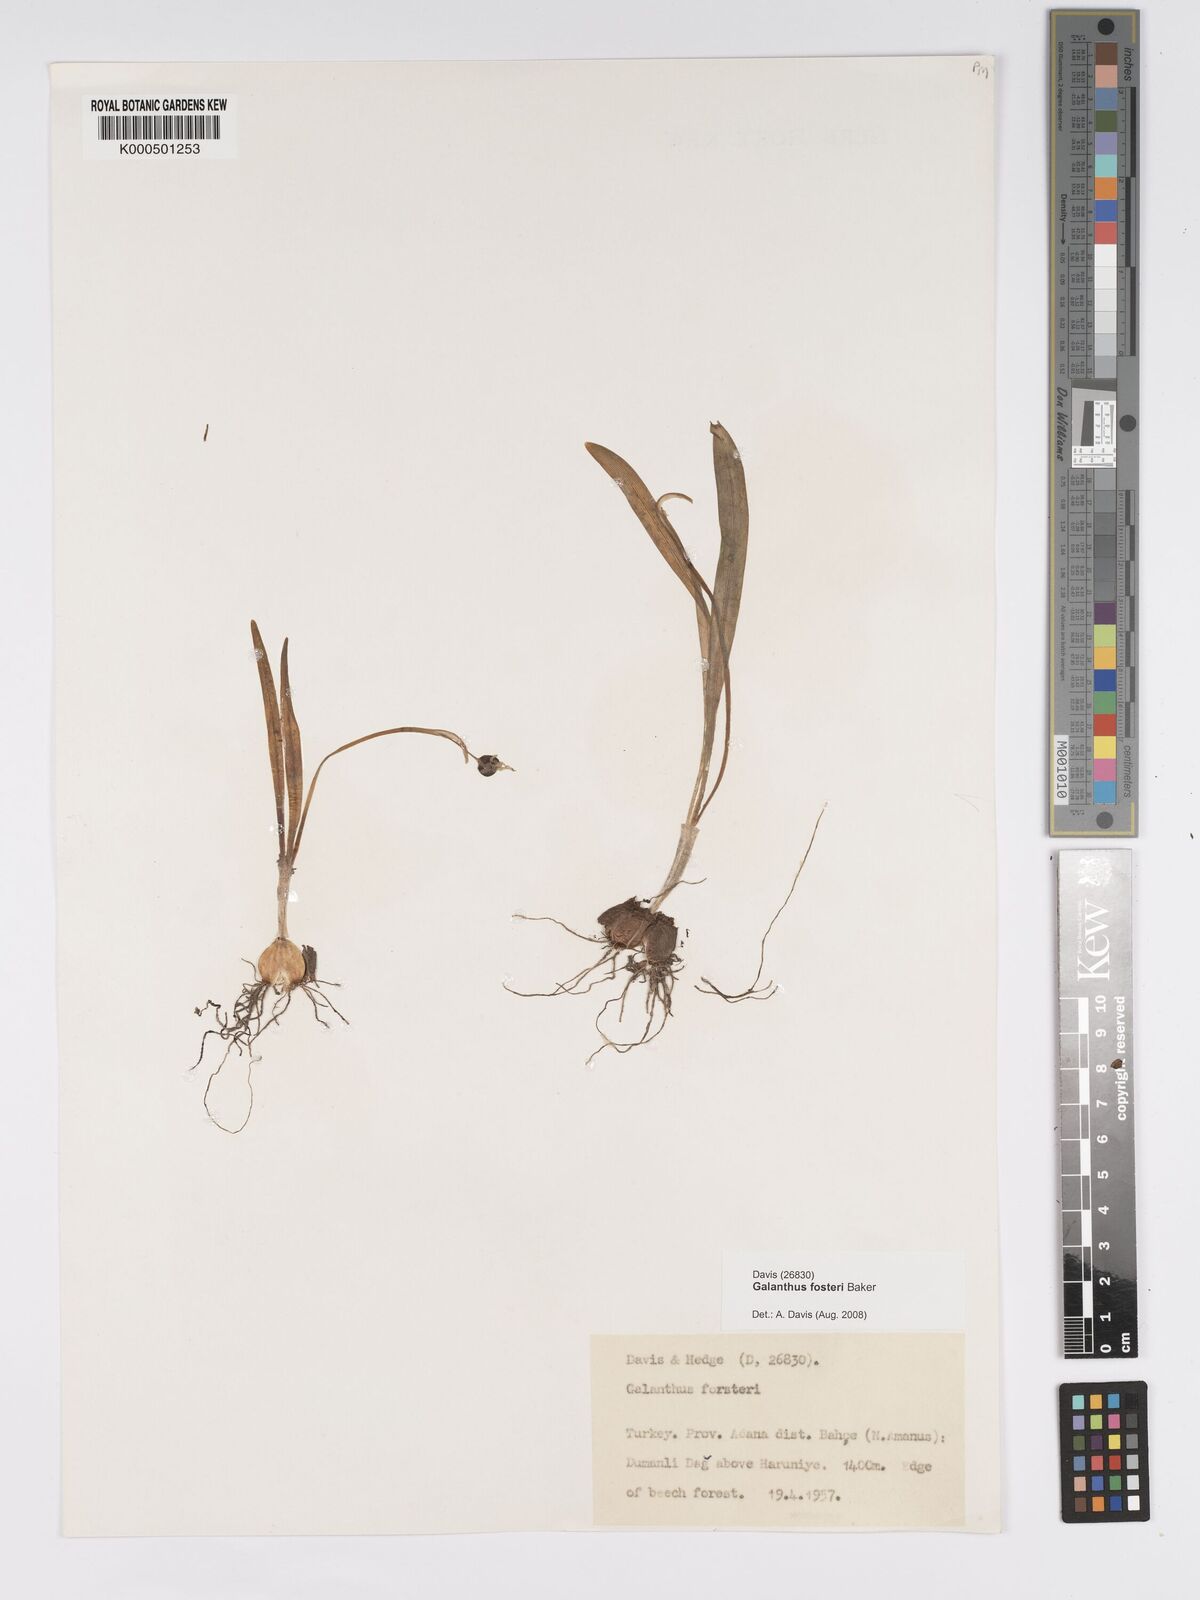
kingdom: Plantae
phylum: Tracheophyta
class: Liliopsida
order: Asparagales
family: Amaryllidaceae
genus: Galanthus
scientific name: Galanthus fosteri
